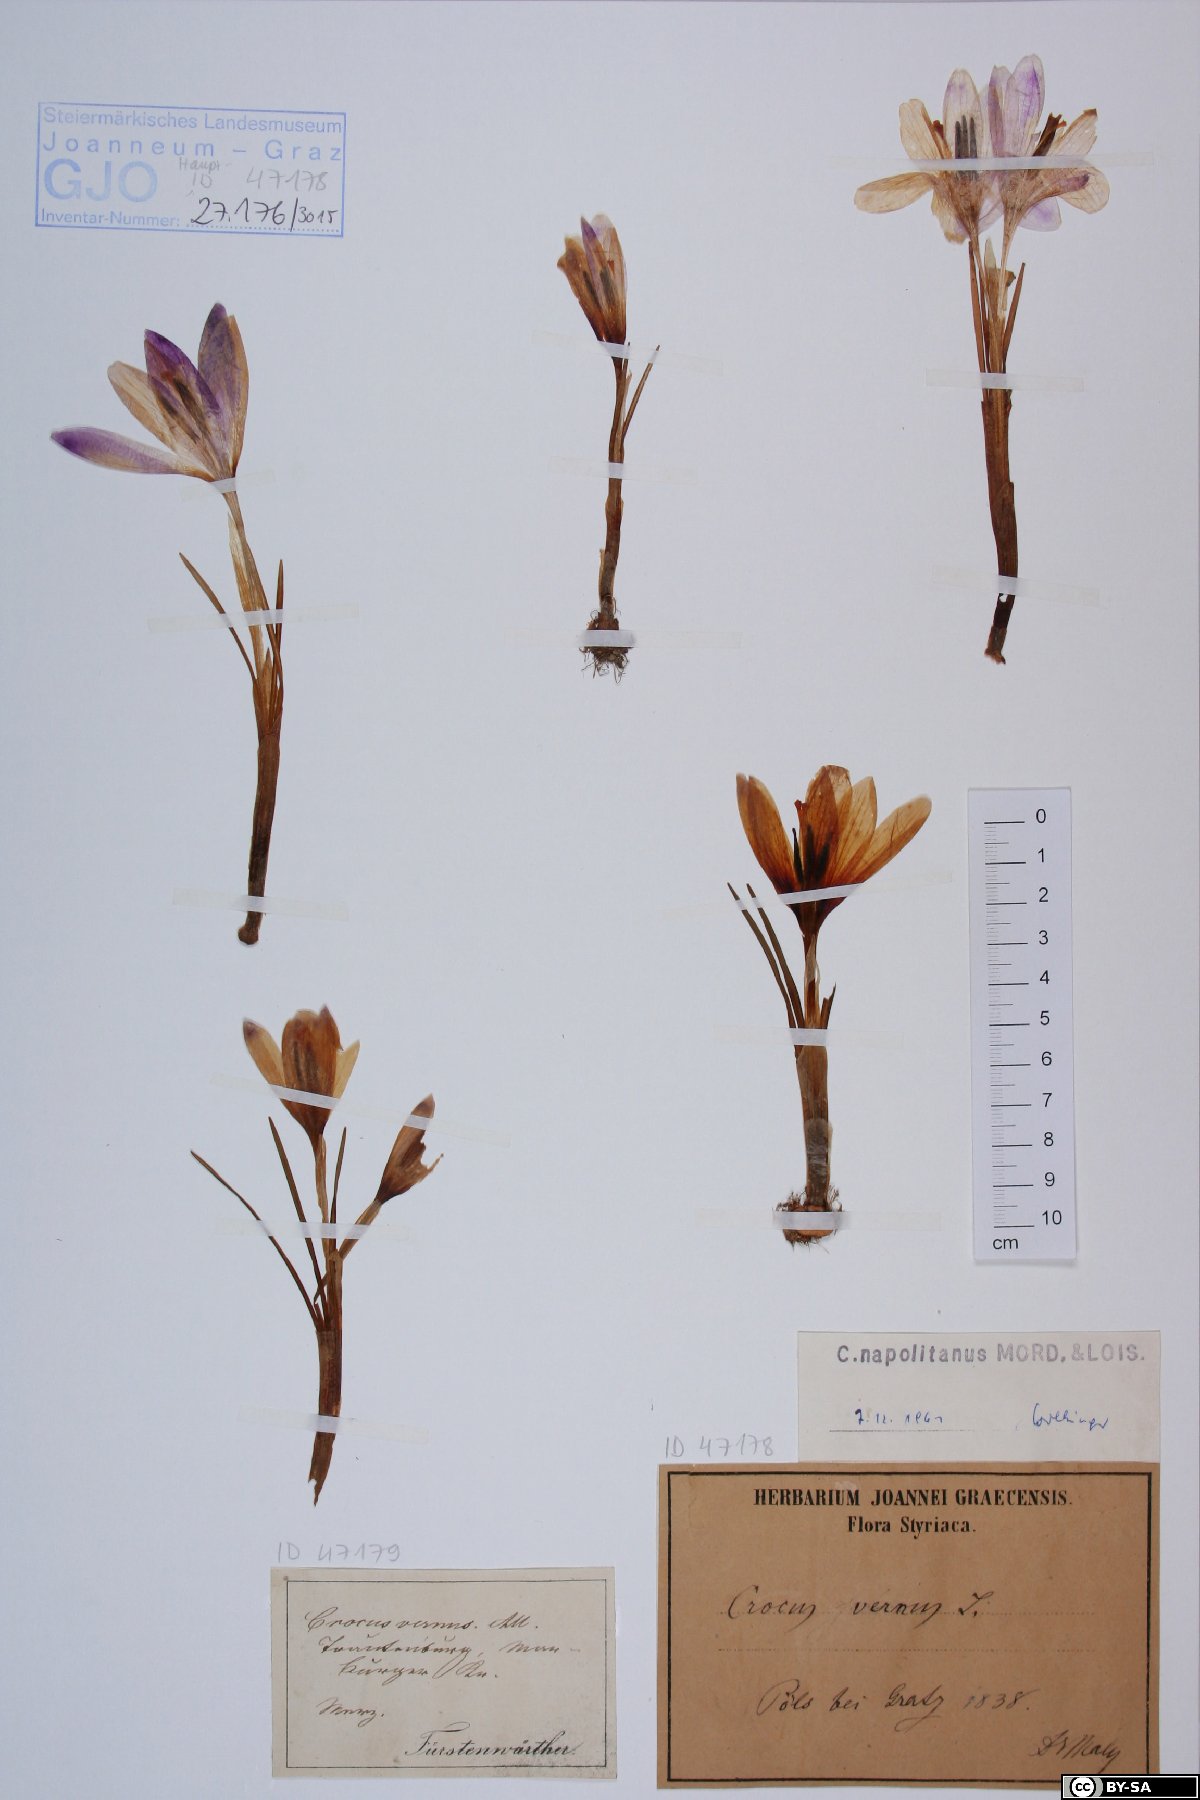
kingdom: Plantae
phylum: Tracheophyta
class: Liliopsida
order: Asparagales
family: Iridaceae
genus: Crocus
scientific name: Crocus vernus
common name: Spring crocus
